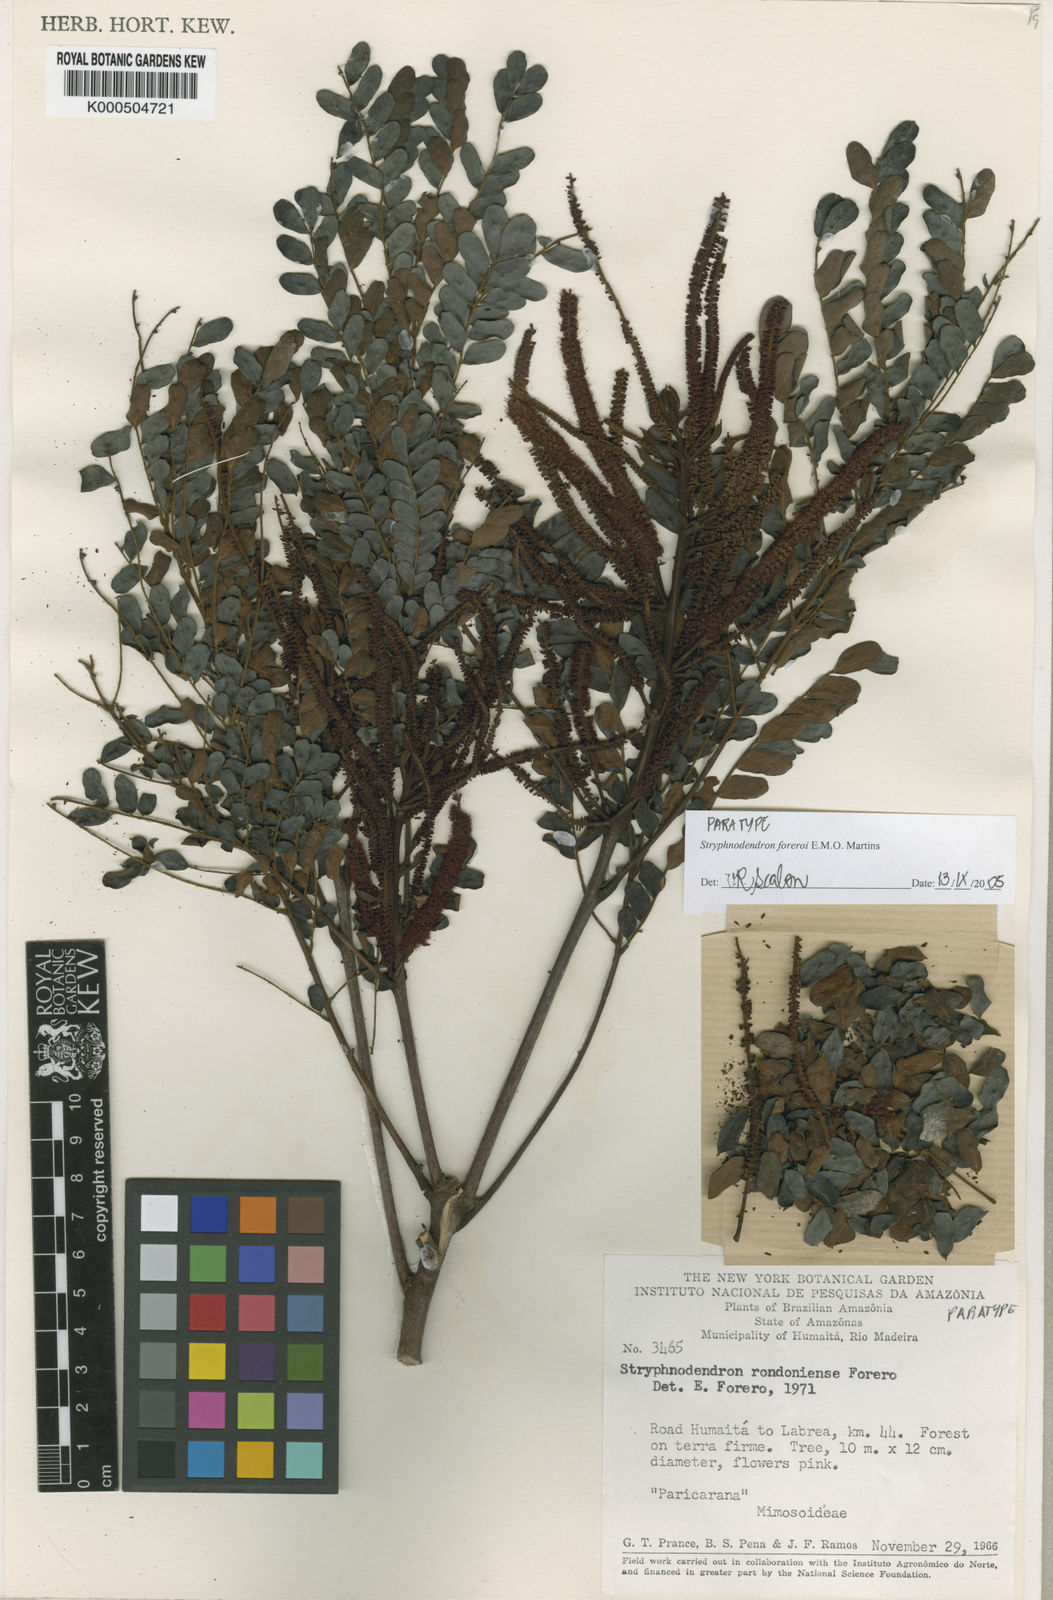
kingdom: Plantae
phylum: Tracheophyta
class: Magnoliopsida
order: Fabales
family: Fabaceae
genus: Stryphnodendron
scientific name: Stryphnodendron foreroi
